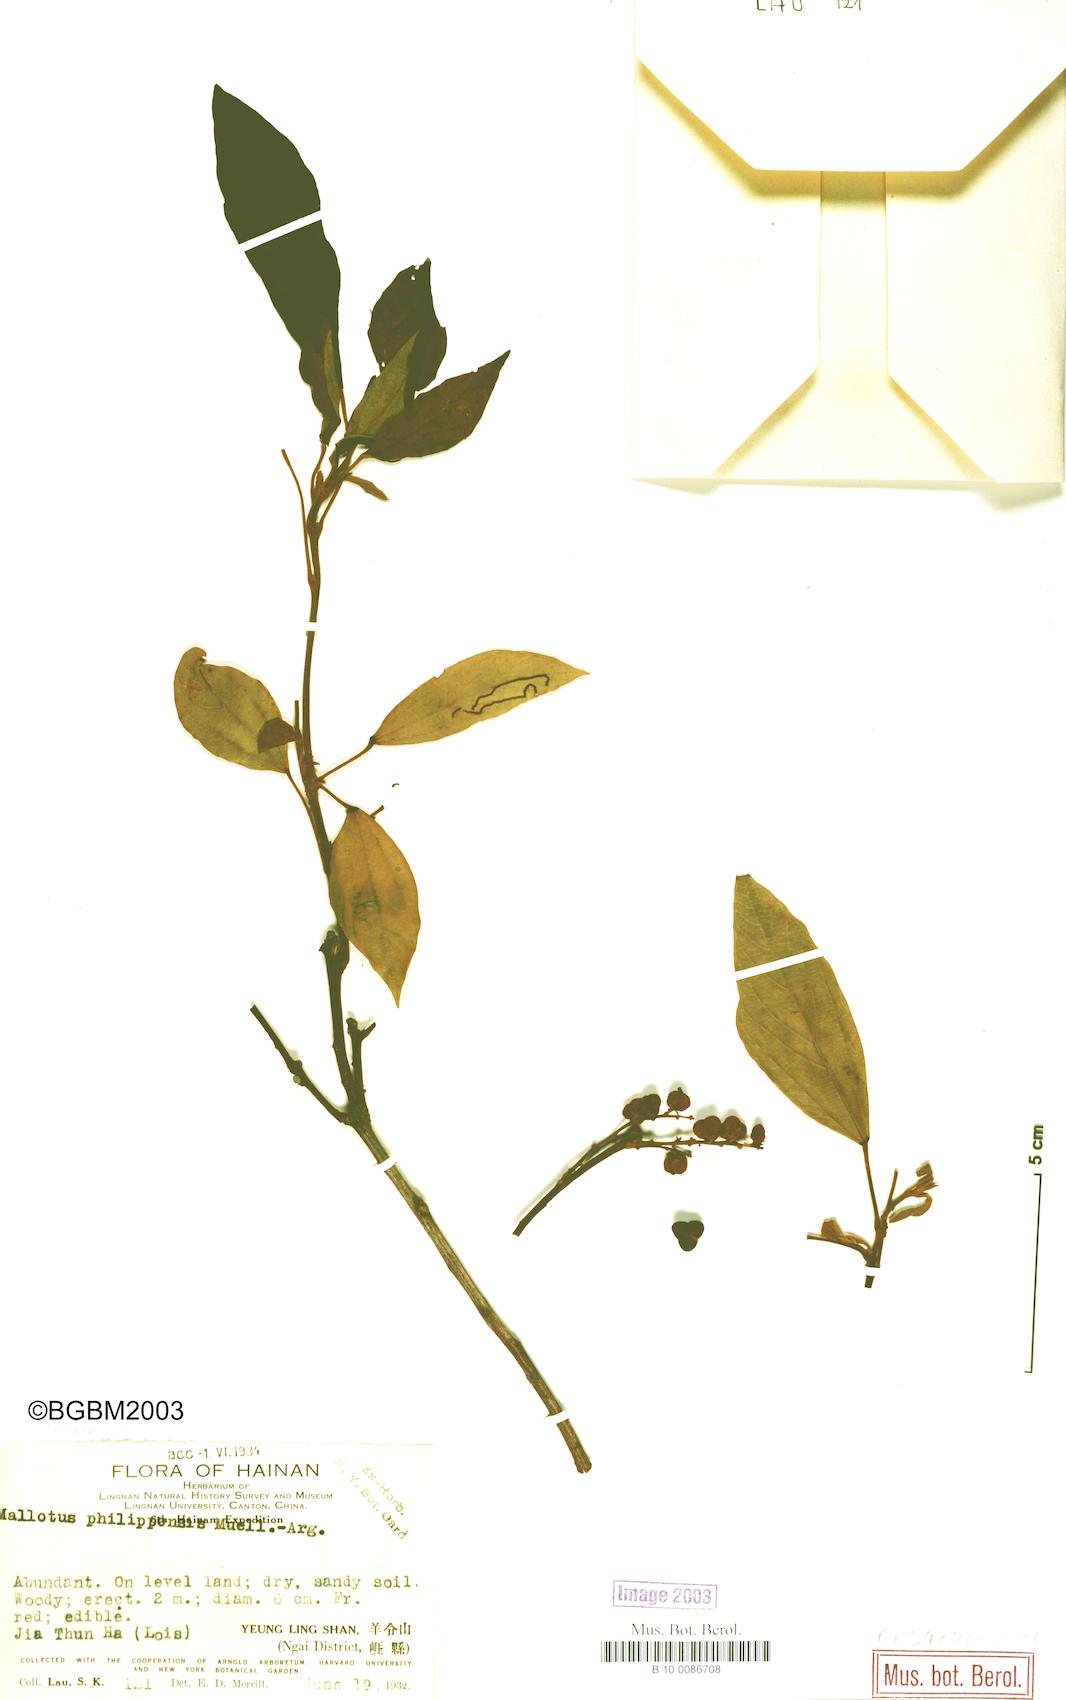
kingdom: Plantae
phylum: Tracheophyta
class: Magnoliopsida
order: Malpighiales
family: Euphorbiaceae
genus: Mallotus
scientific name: Mallotus philippensis
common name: Kamala tree
